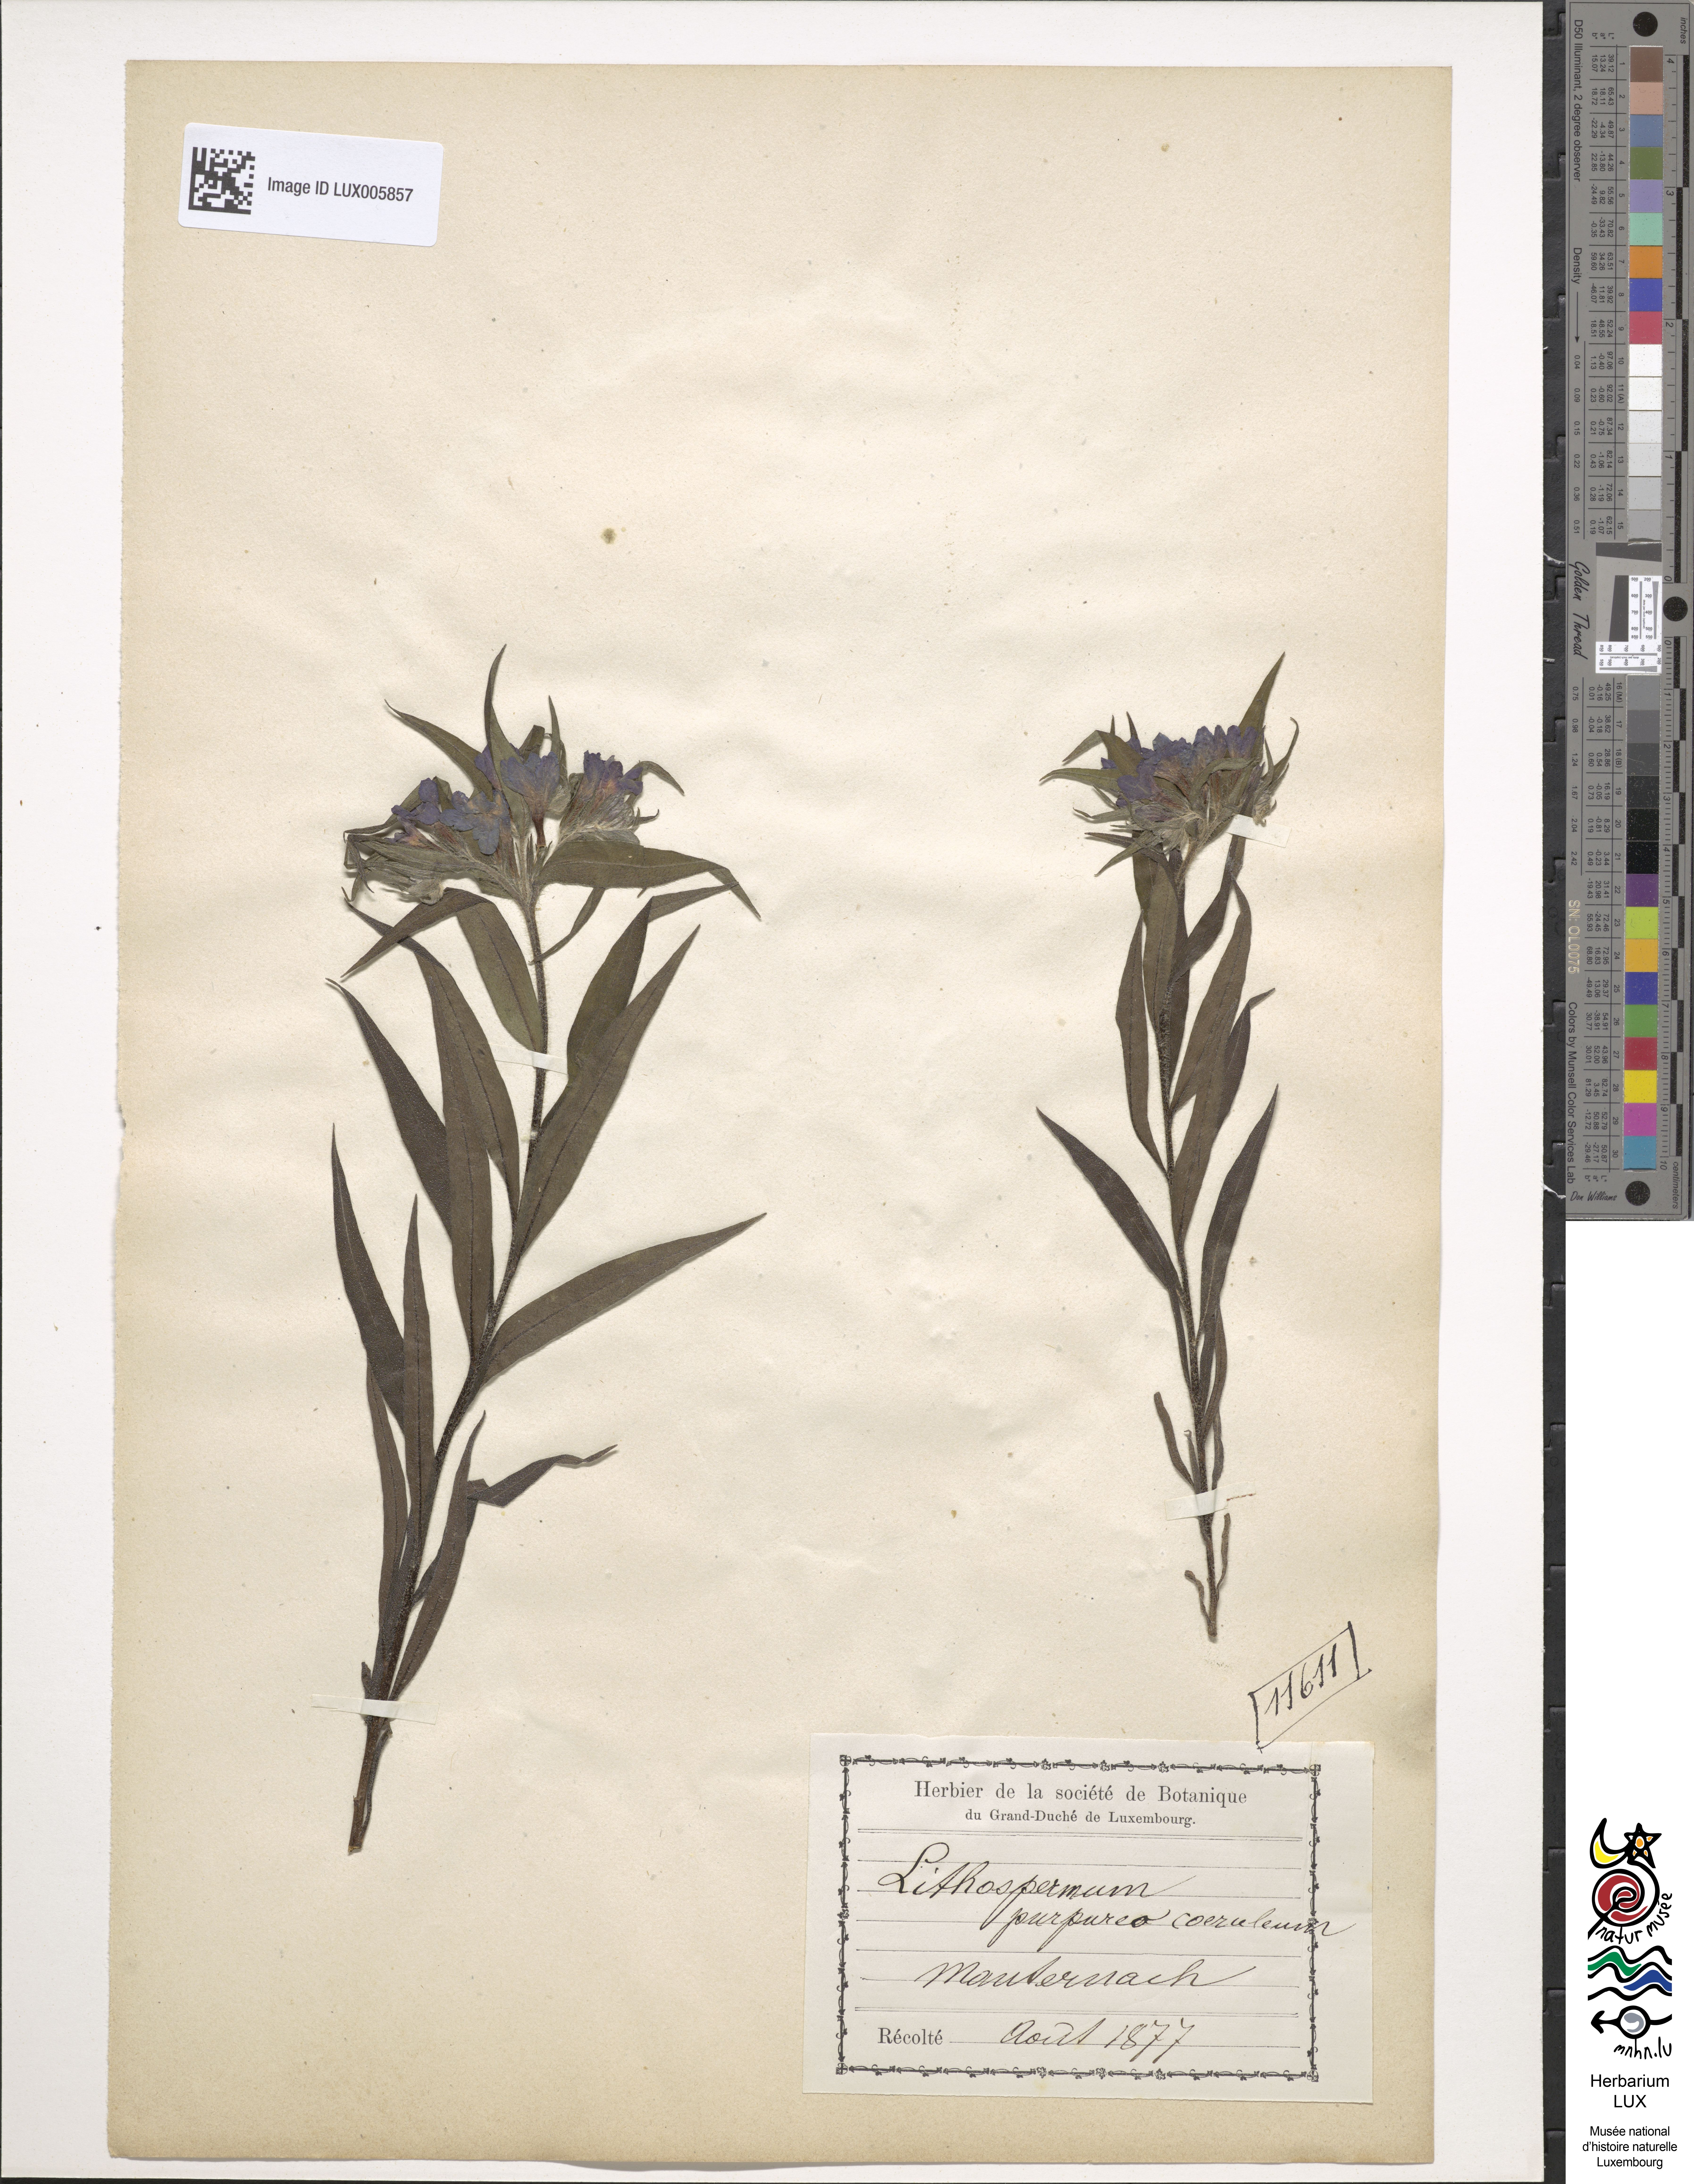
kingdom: Plantae
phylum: Tracheophyta
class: Magnoliopsida
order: Boraginales
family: Boraginaceae
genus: Aegonychon
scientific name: Aegonychon purpurocaeruleum
